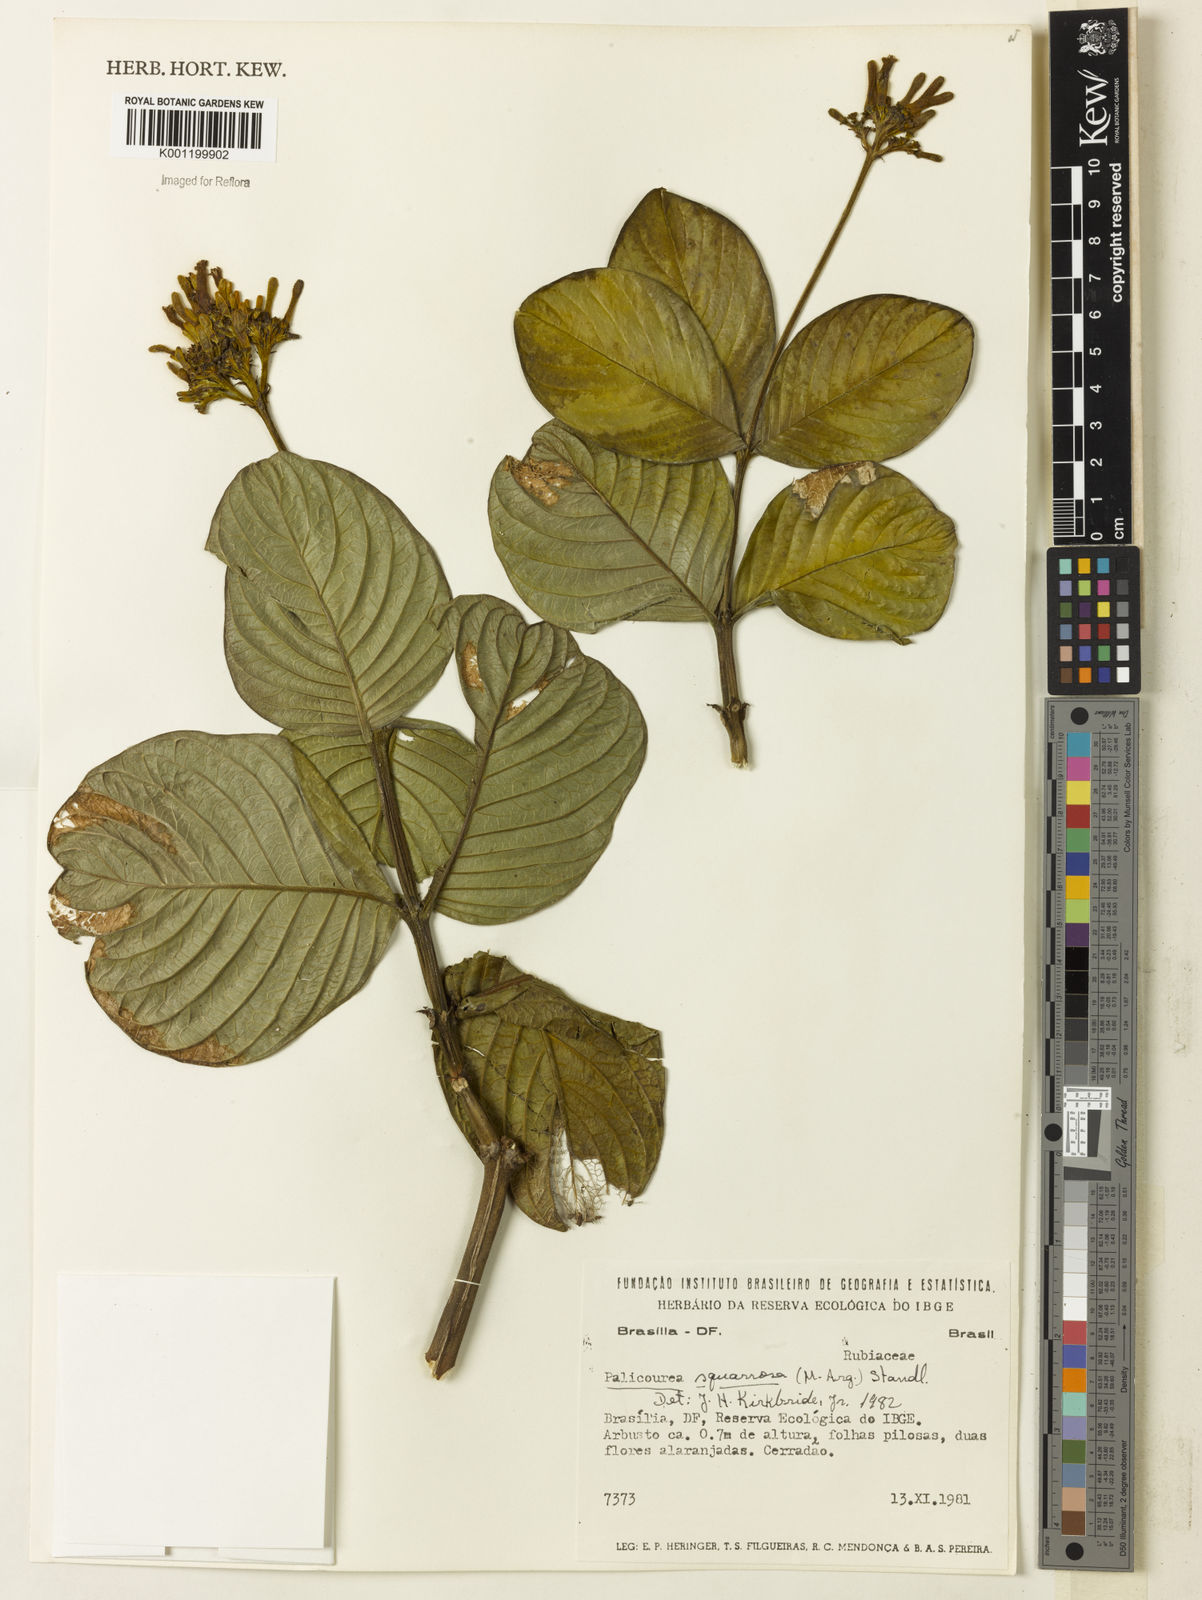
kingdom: Plantae
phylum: Tracheophyta
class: Magnoliopsida
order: Gentianales
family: Rubiaceae
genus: Palicourea
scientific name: Palicourea
